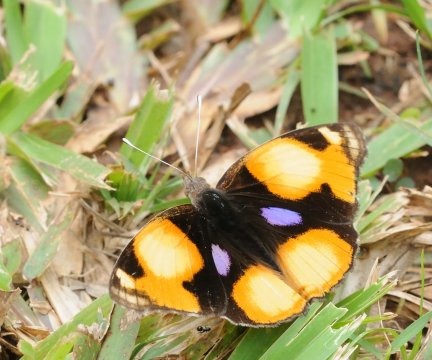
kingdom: Animalia
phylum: Arthropoda
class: Insecta
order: Lepidoptera
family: Nymphalidae
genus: Junonia
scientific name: Junonia hierta
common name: Yellow Pansy
